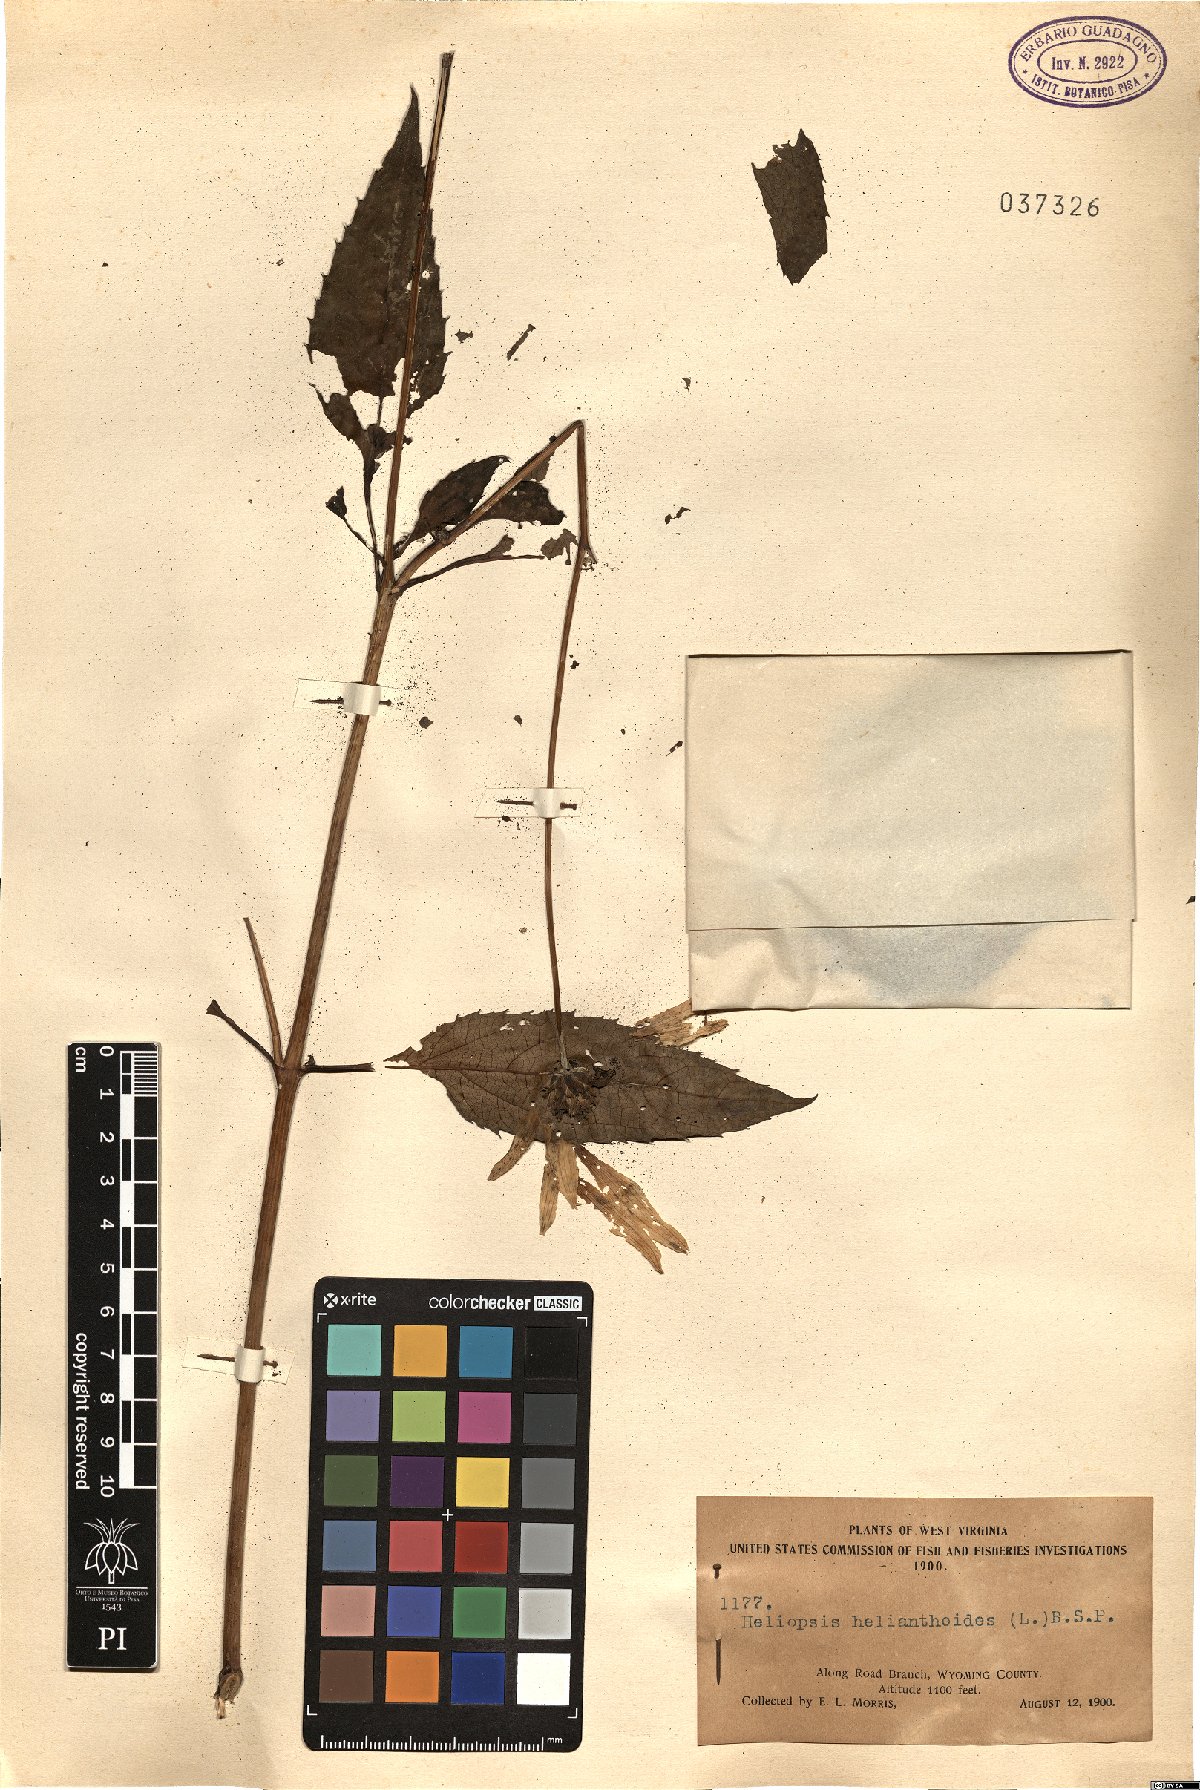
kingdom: Plantae
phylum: Tracheophyta
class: Magnoliopsida
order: Asterales
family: Asteraceae
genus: Heliopsis
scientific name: Heliopsis helianthoides
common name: False sunflower
